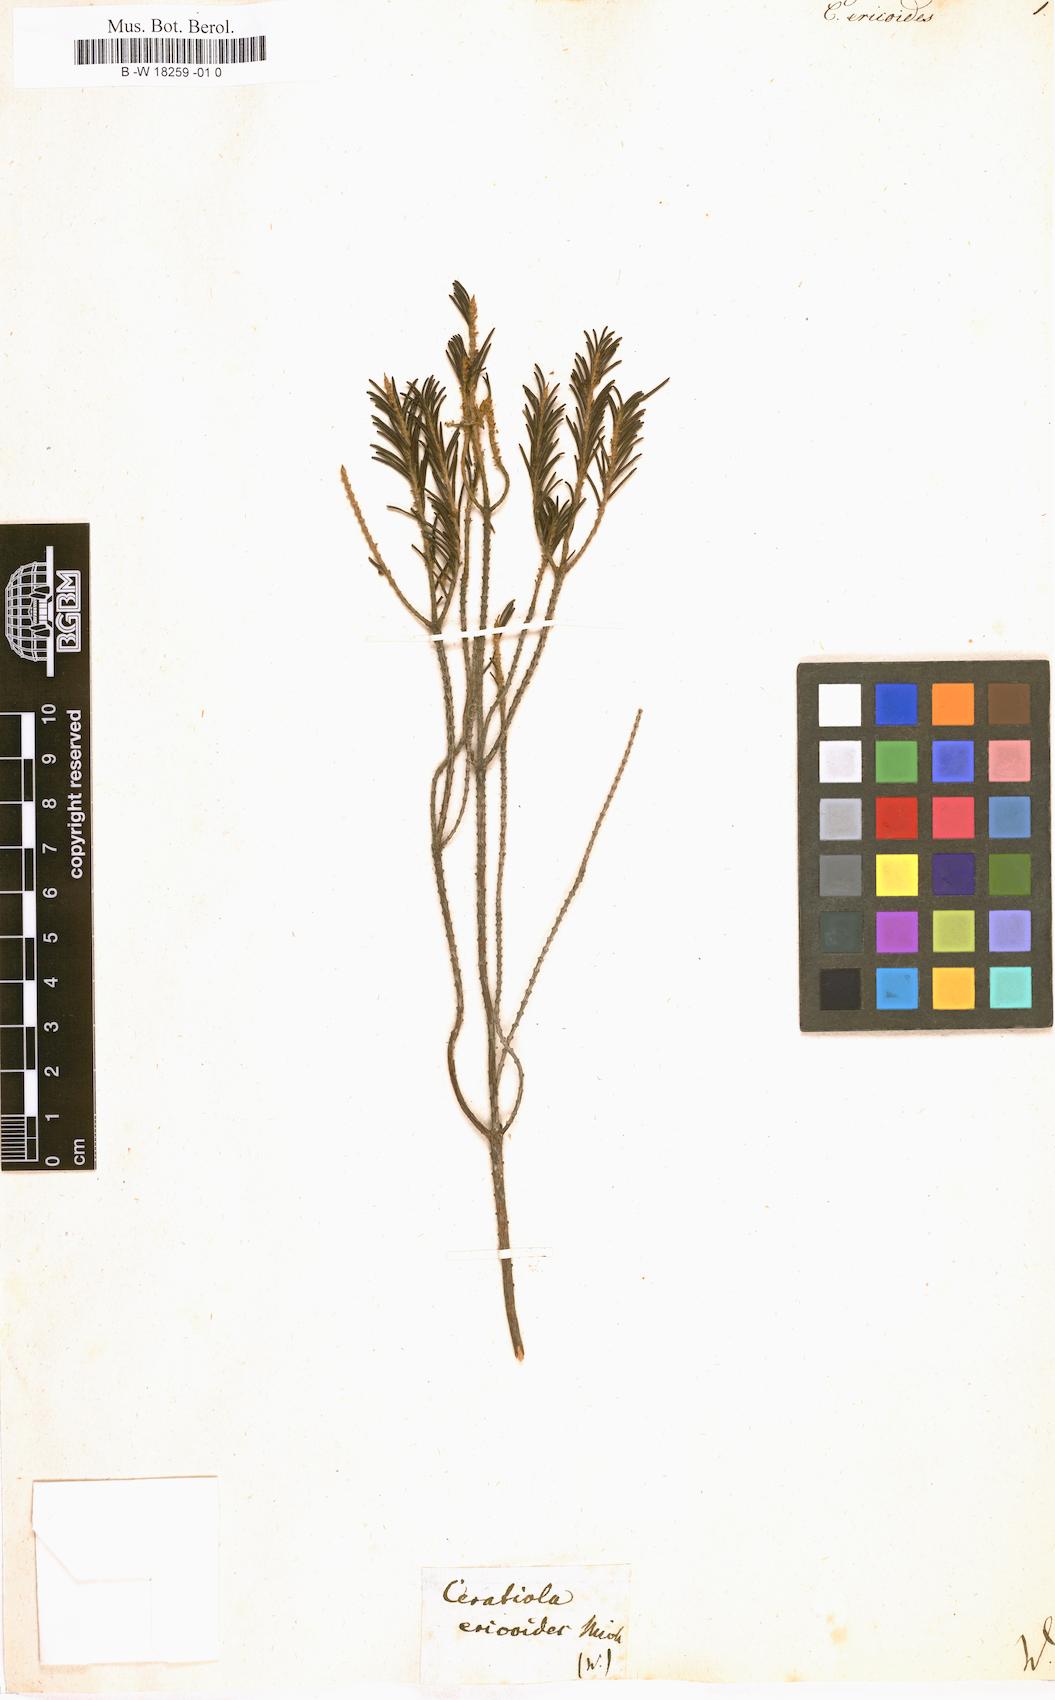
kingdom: Plantae
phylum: Tracheophyta
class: Magnoliopsida
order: Ericales
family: Ericaceae
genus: Ceratiola
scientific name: Ceratiola ericoides
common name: Sandhill-rosemary
